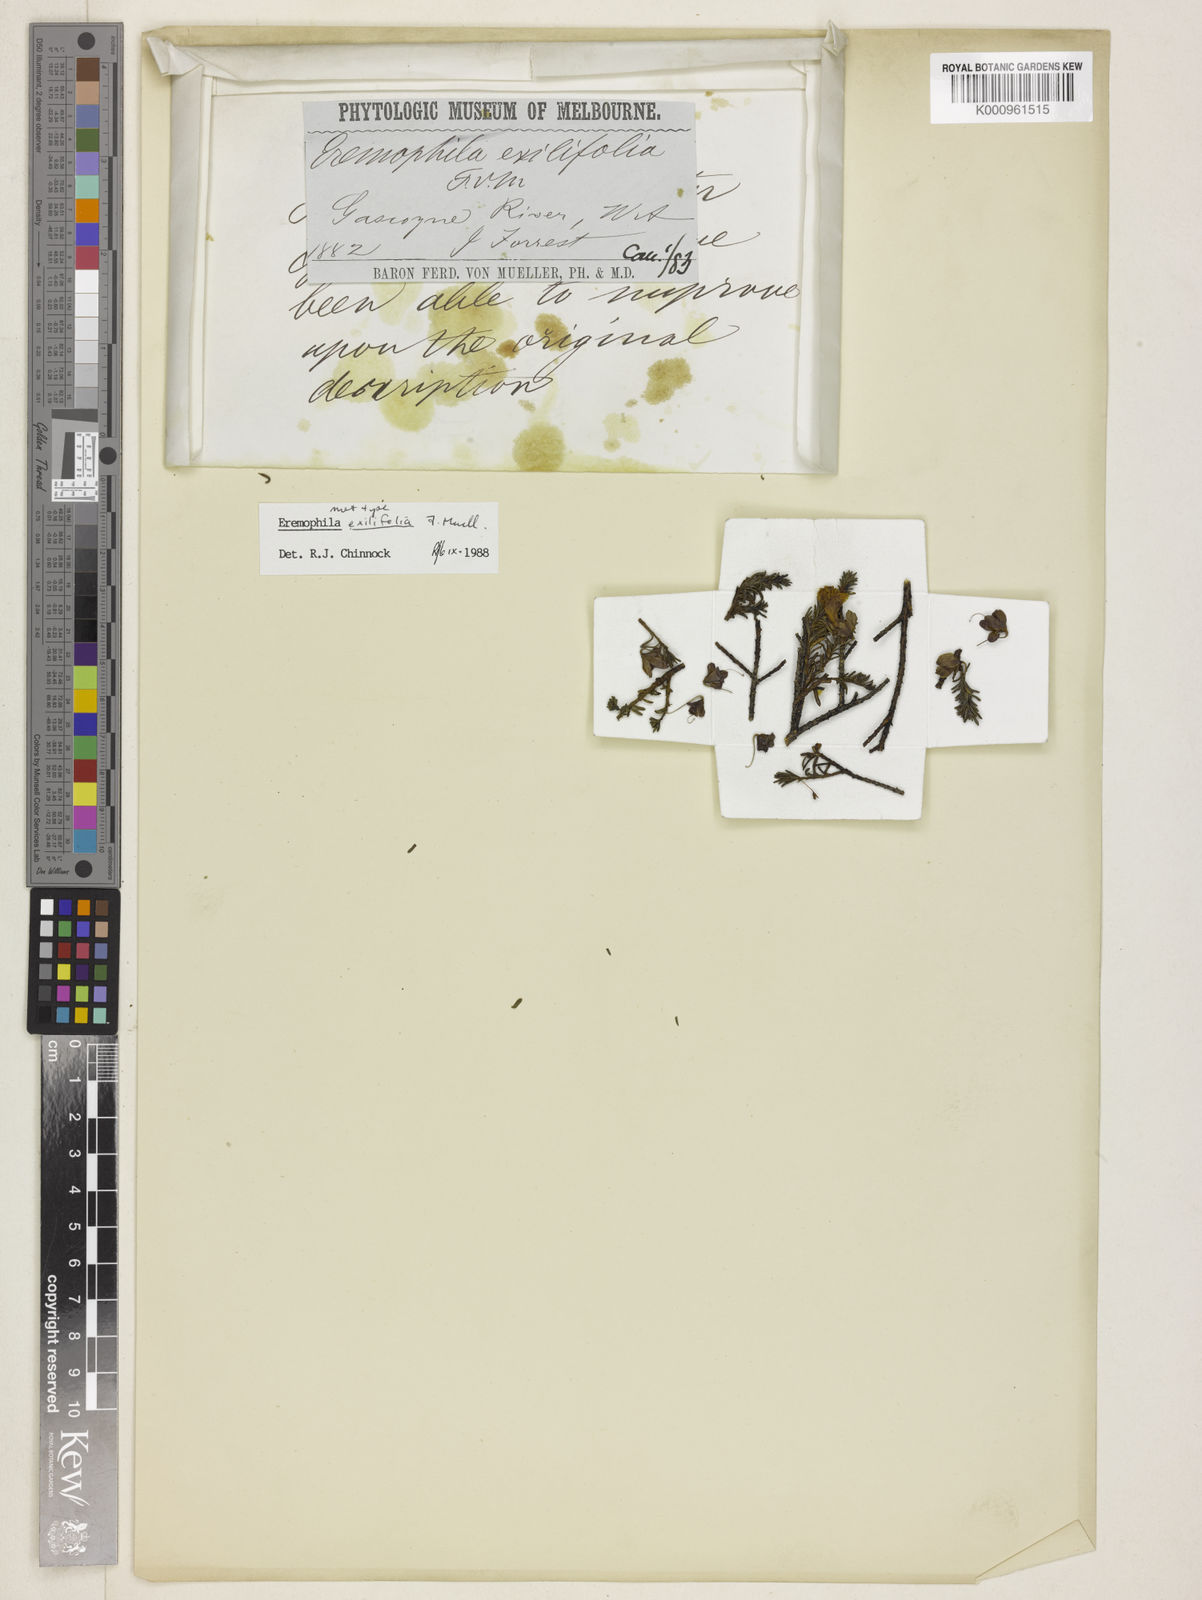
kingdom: Plantae
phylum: Tracheophyta
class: Magnoliopsida
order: Lamiales
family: Scrophulariaceae
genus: Eremophila
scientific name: Eremophila exilifolia
